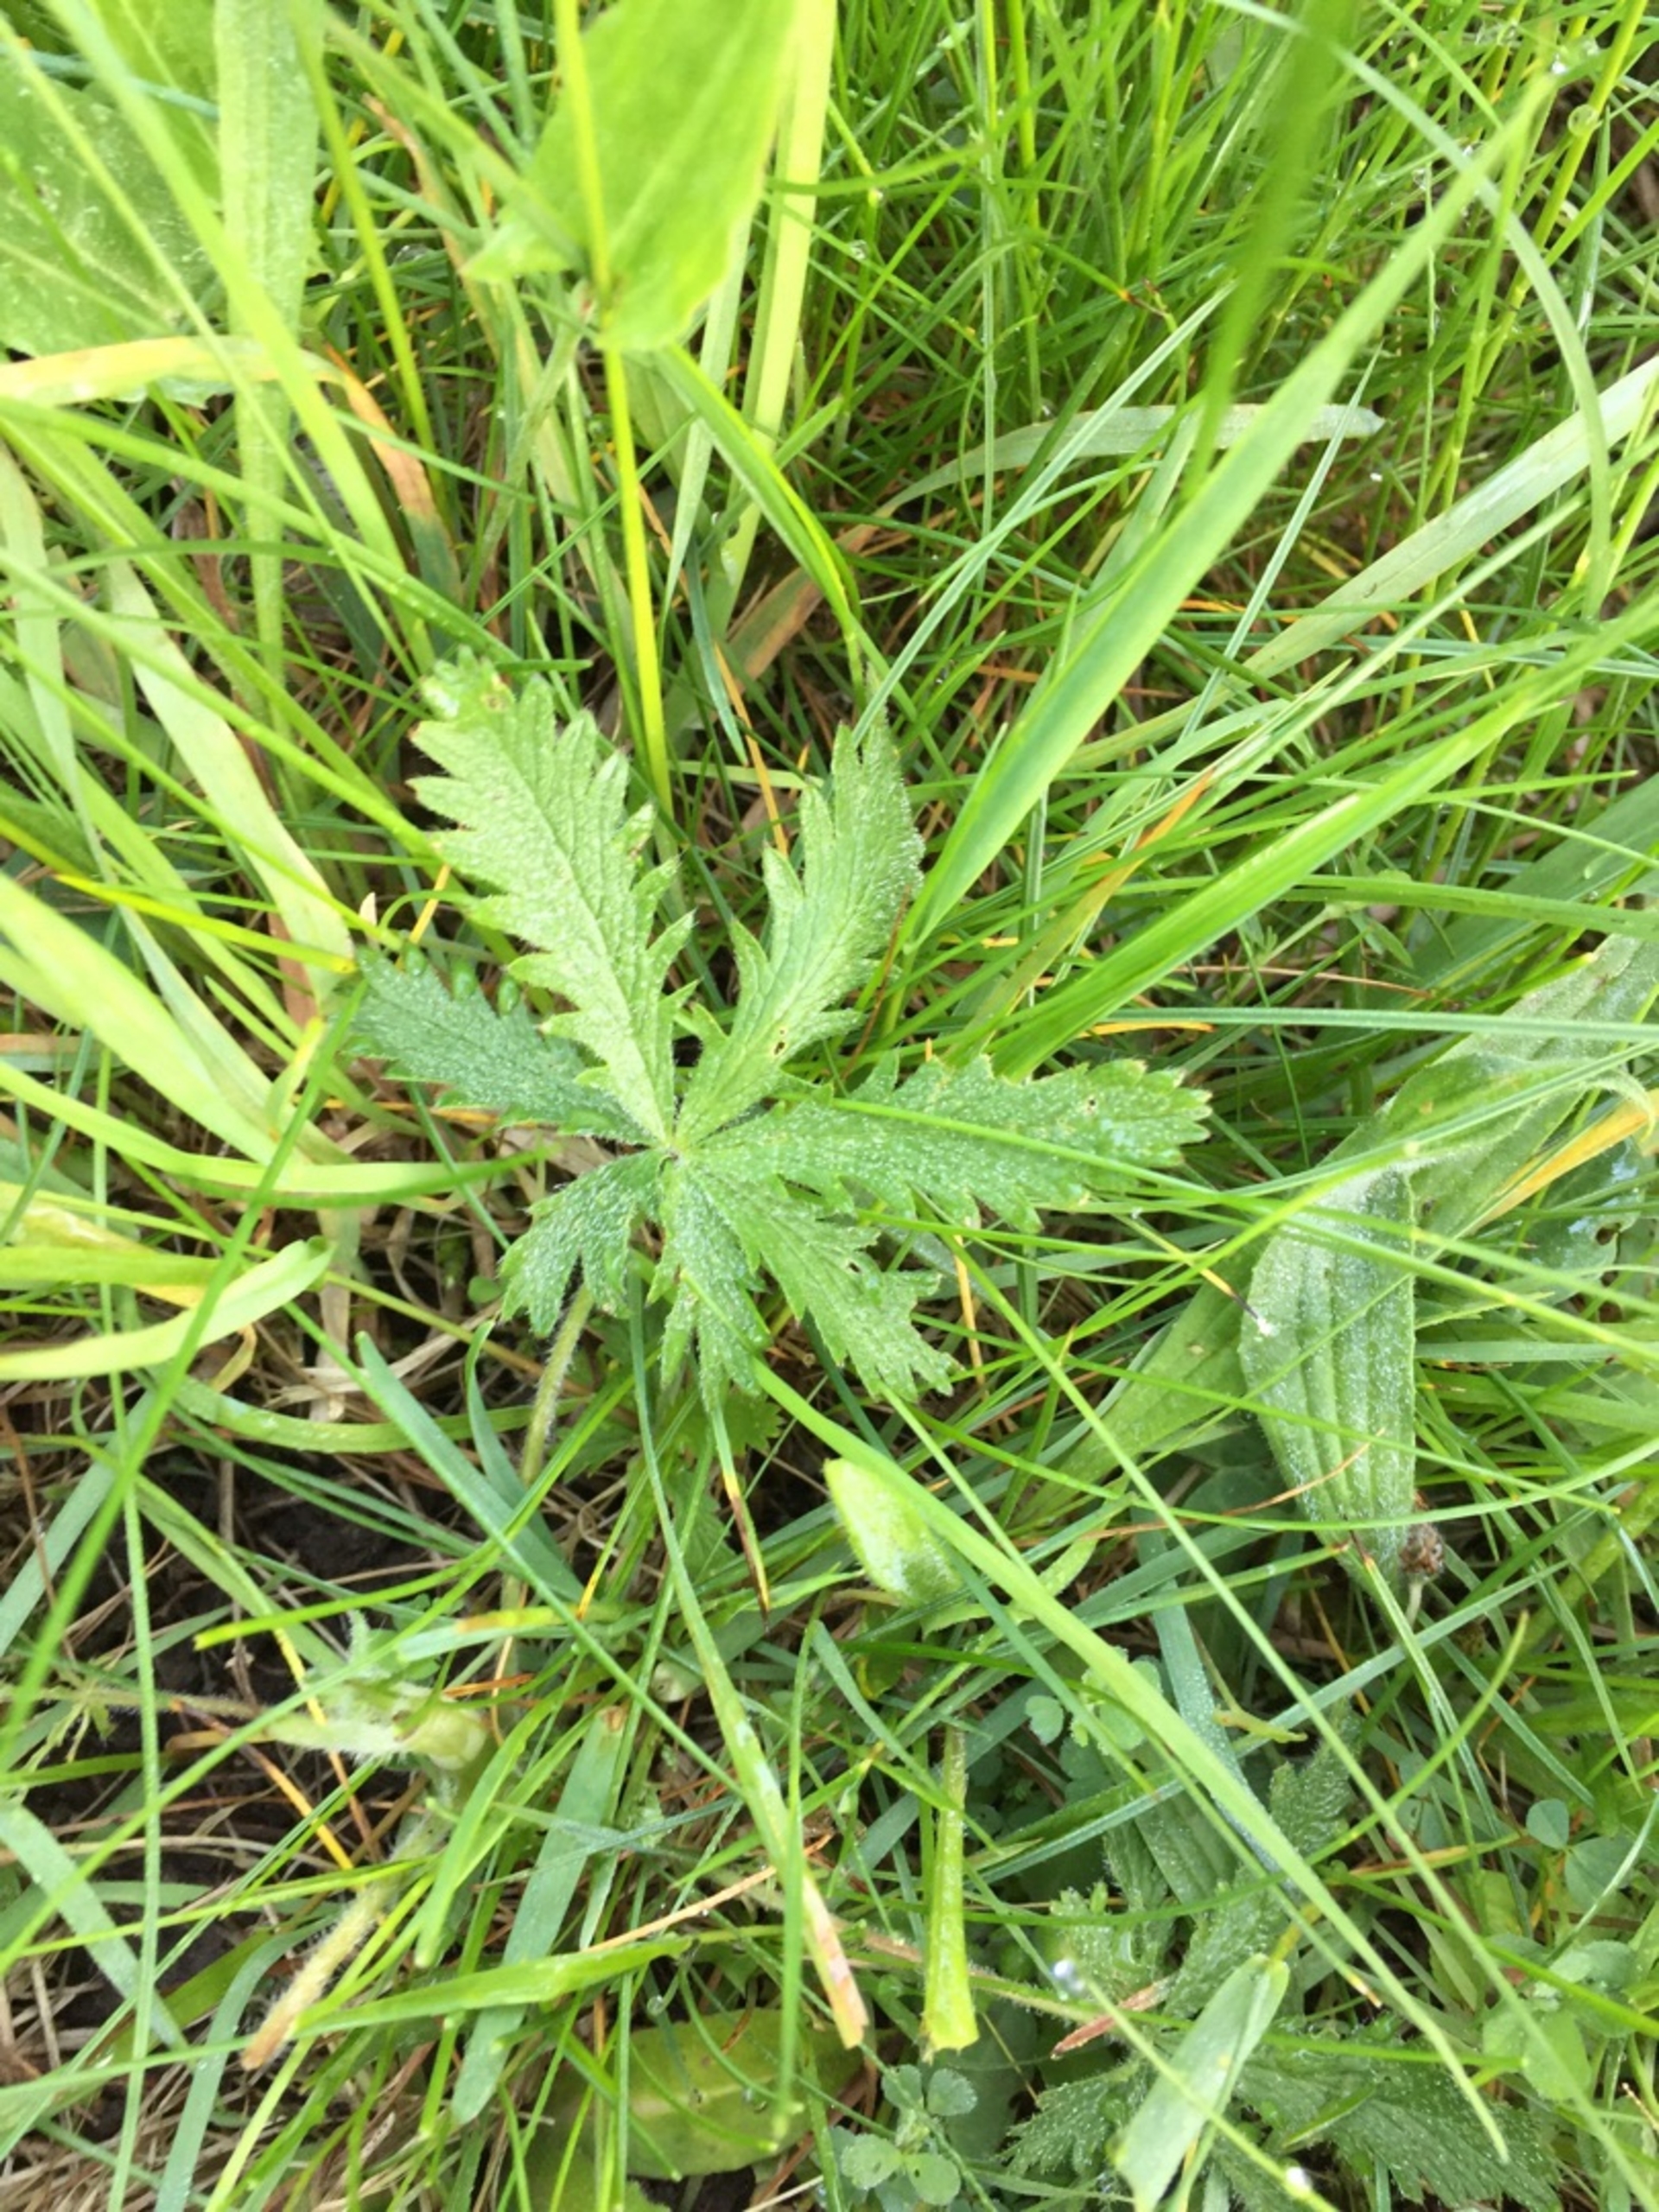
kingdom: Plantae
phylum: Tracheophyta
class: Magnoliopsida
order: Rosales
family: Rosaceae
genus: Potentilla
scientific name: Potentilla recta
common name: Rank potentil
